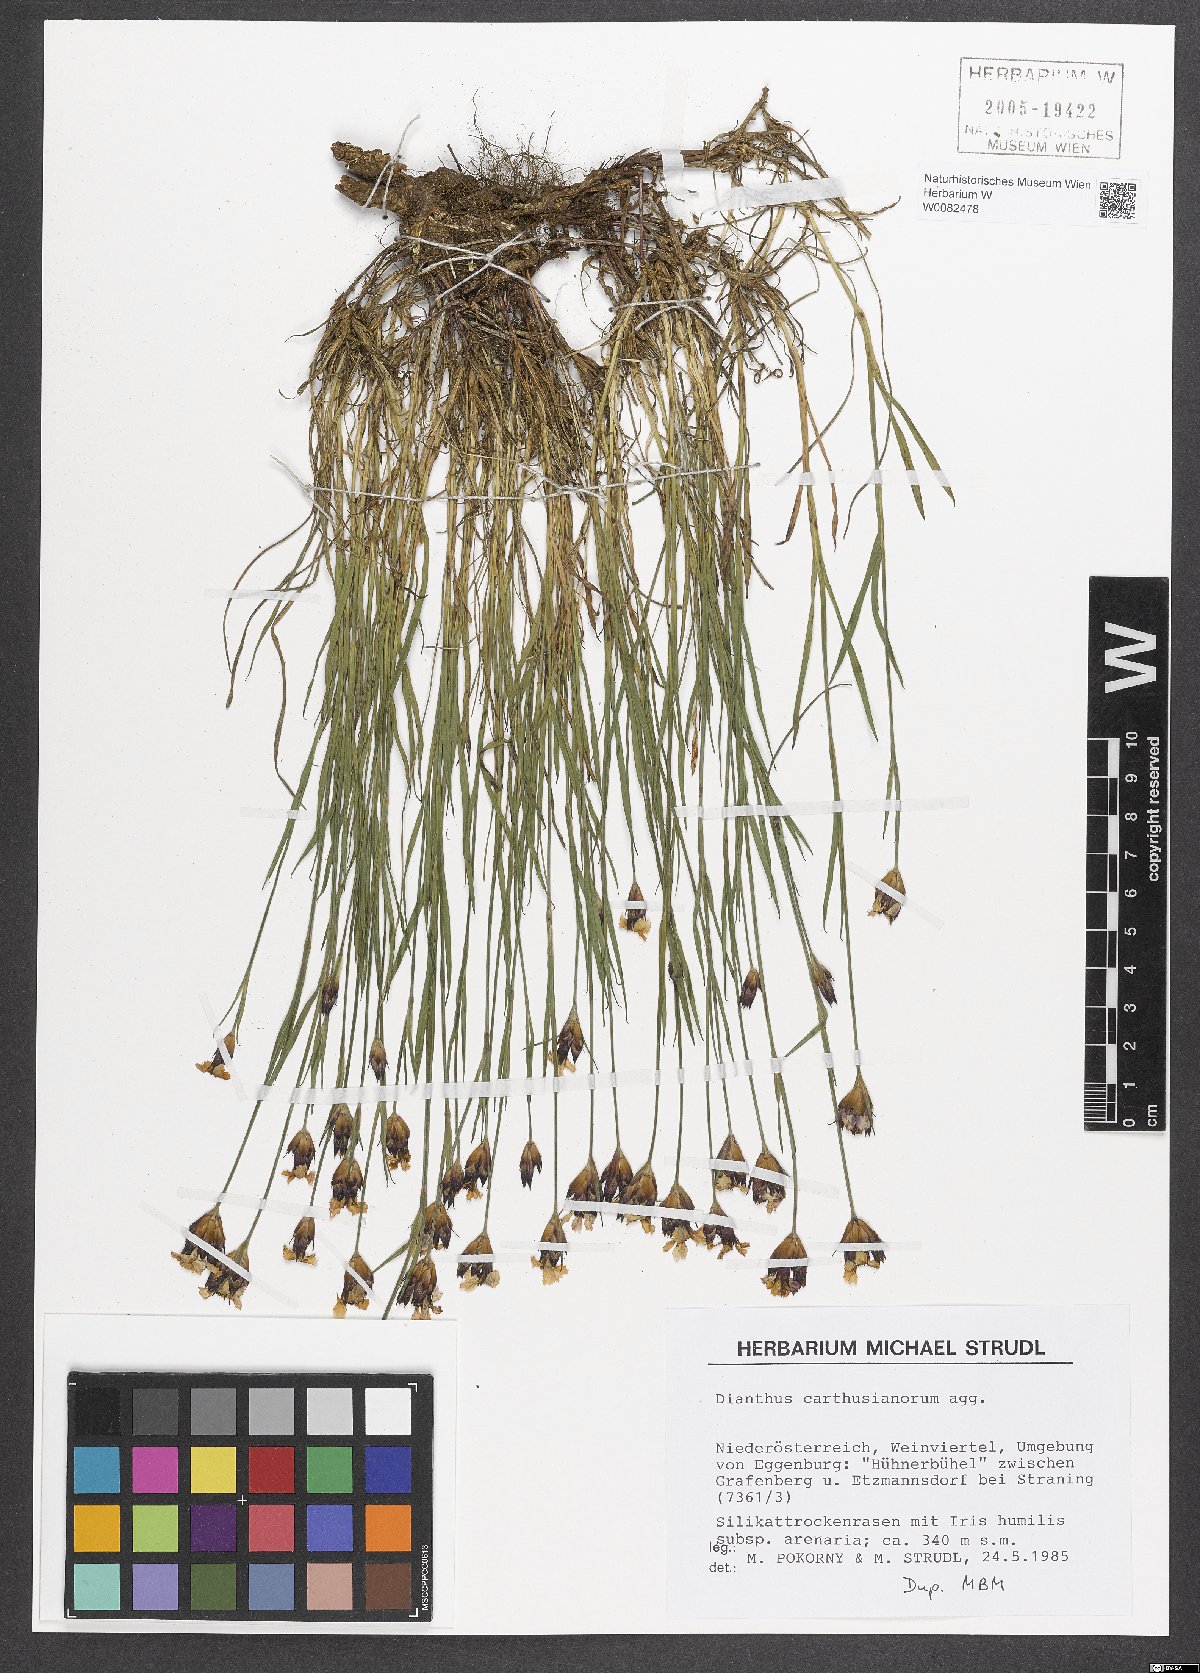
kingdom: Plantae
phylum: Tracheophyta
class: Magnoliopsida
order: Caryophyllales
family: Caryophyllaceae
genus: Dianthus
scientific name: Dianthus carthusianorum
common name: Carthusian pink
